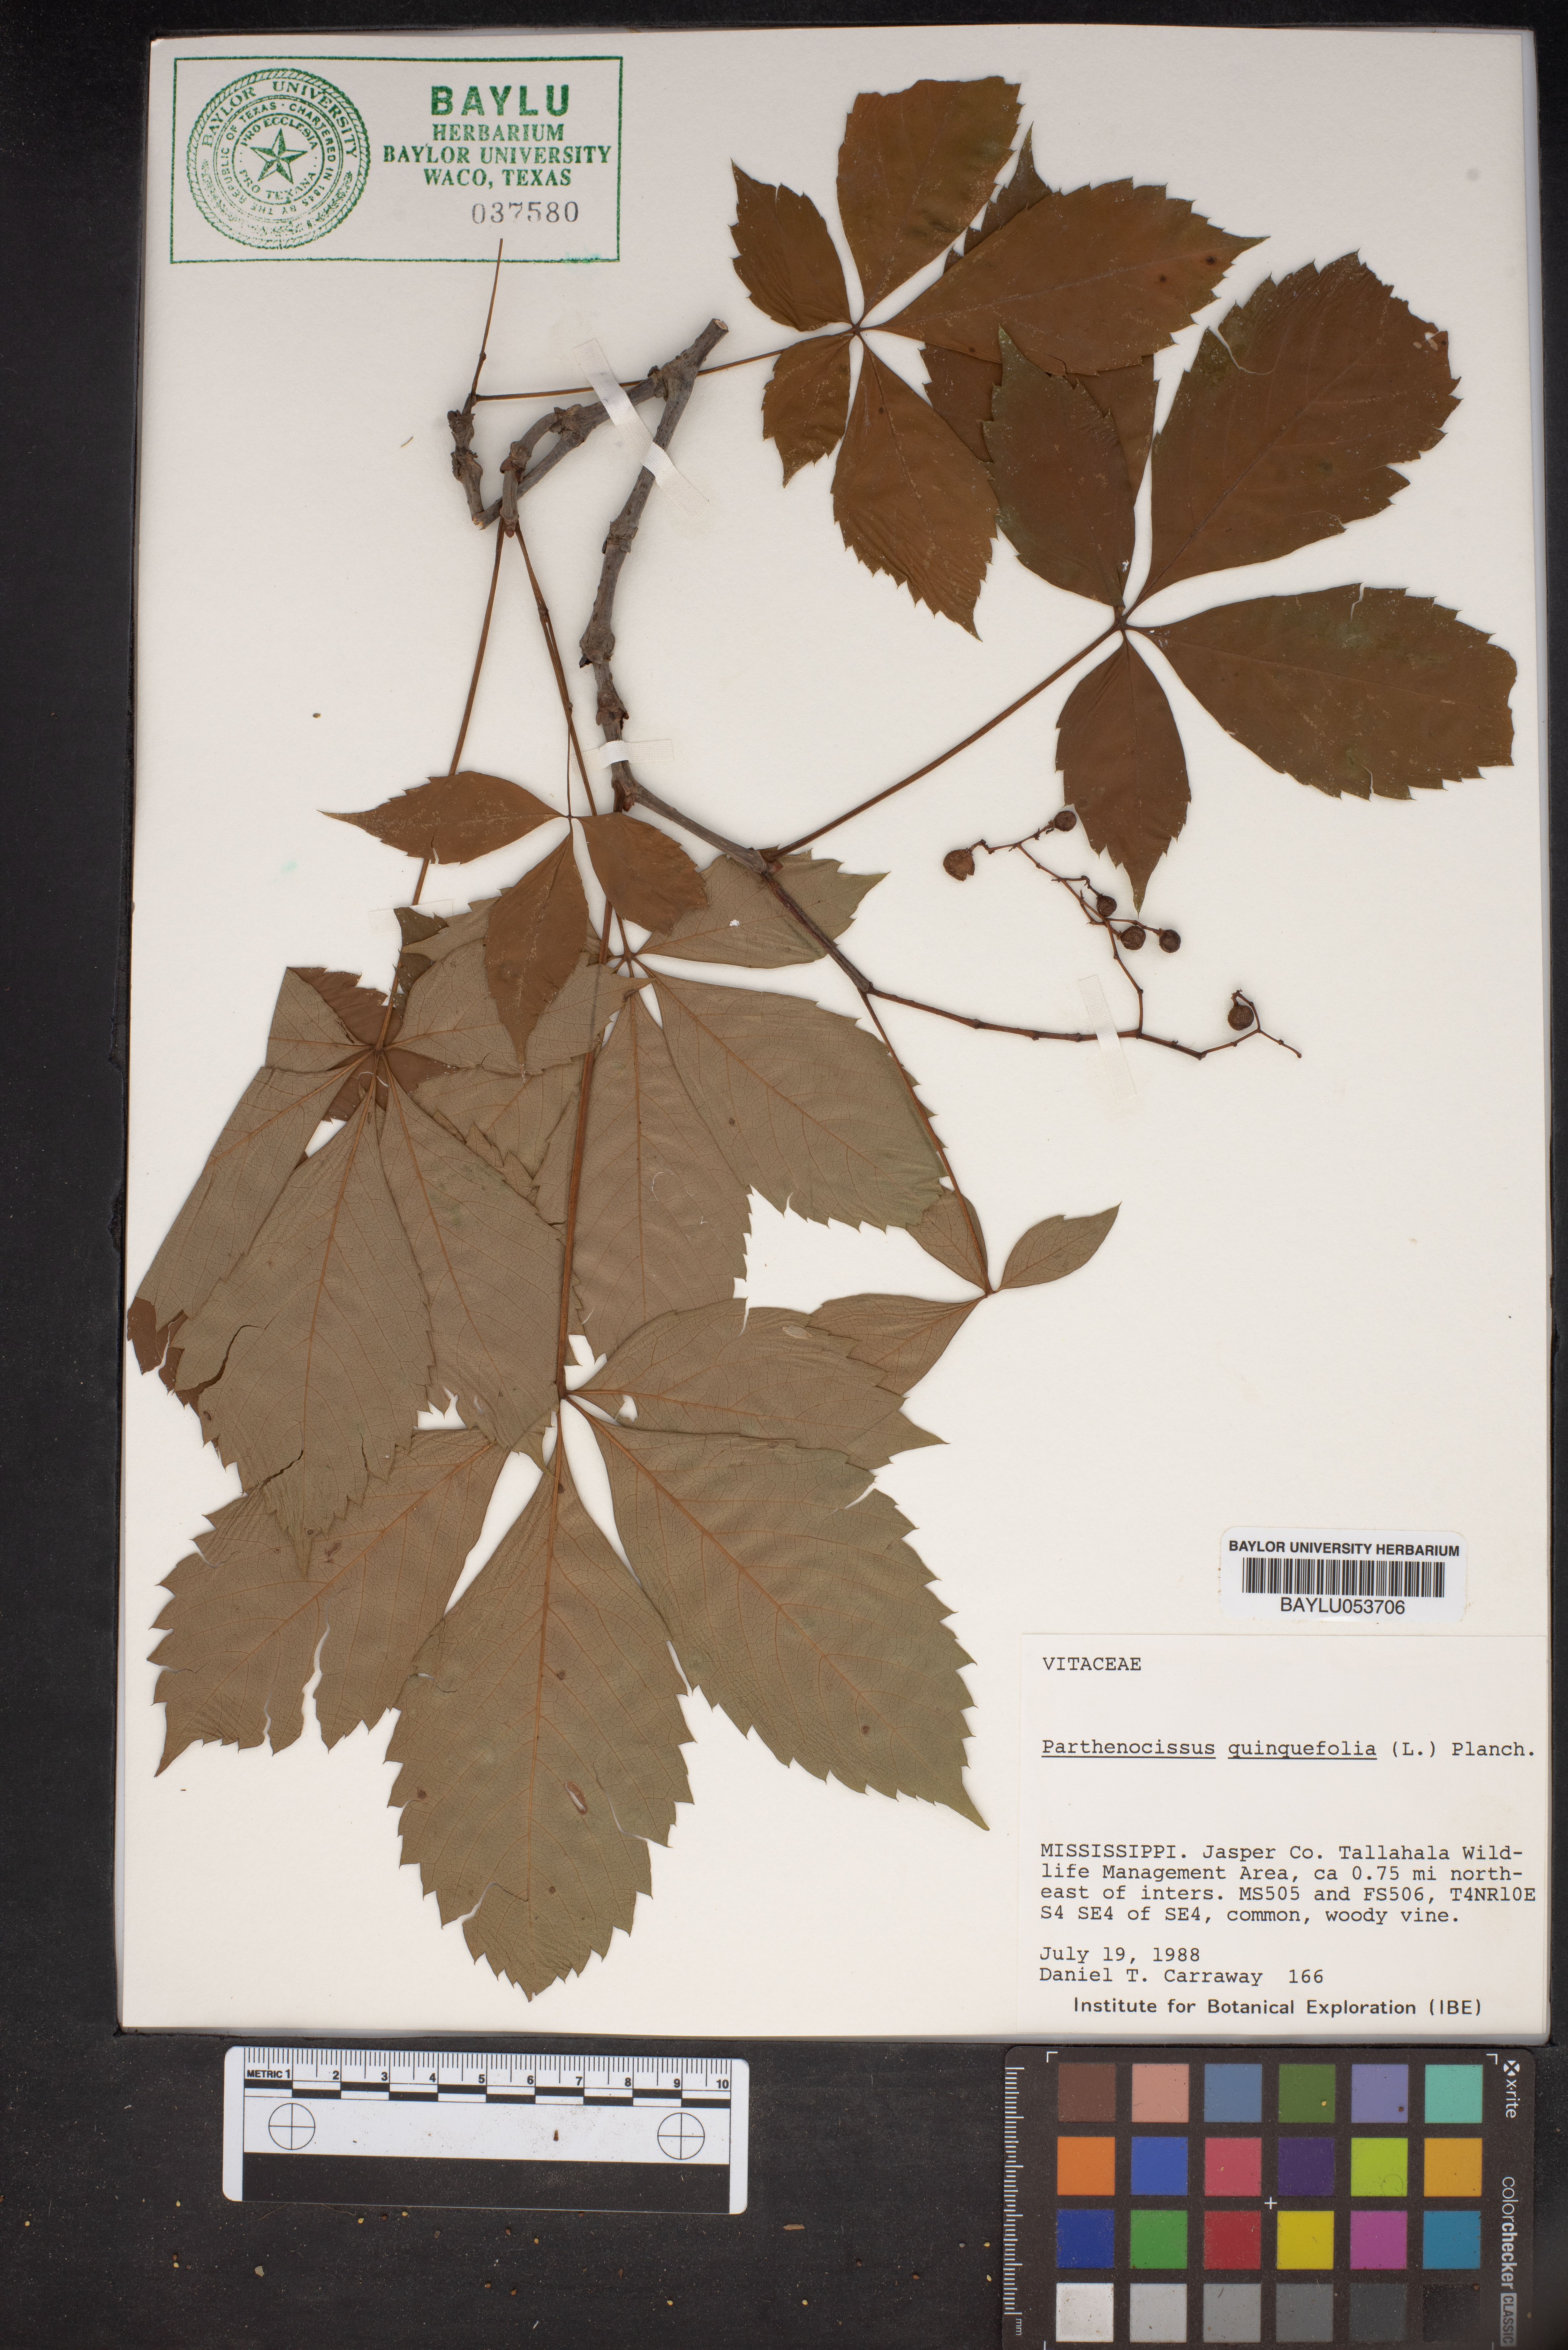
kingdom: Plantae
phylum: Tracheophyta
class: Magnoliopsida
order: Vitales
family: Vitaceae
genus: Parthenocissus
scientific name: Parthenocissus quinquefolia
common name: Virginia-creeper
